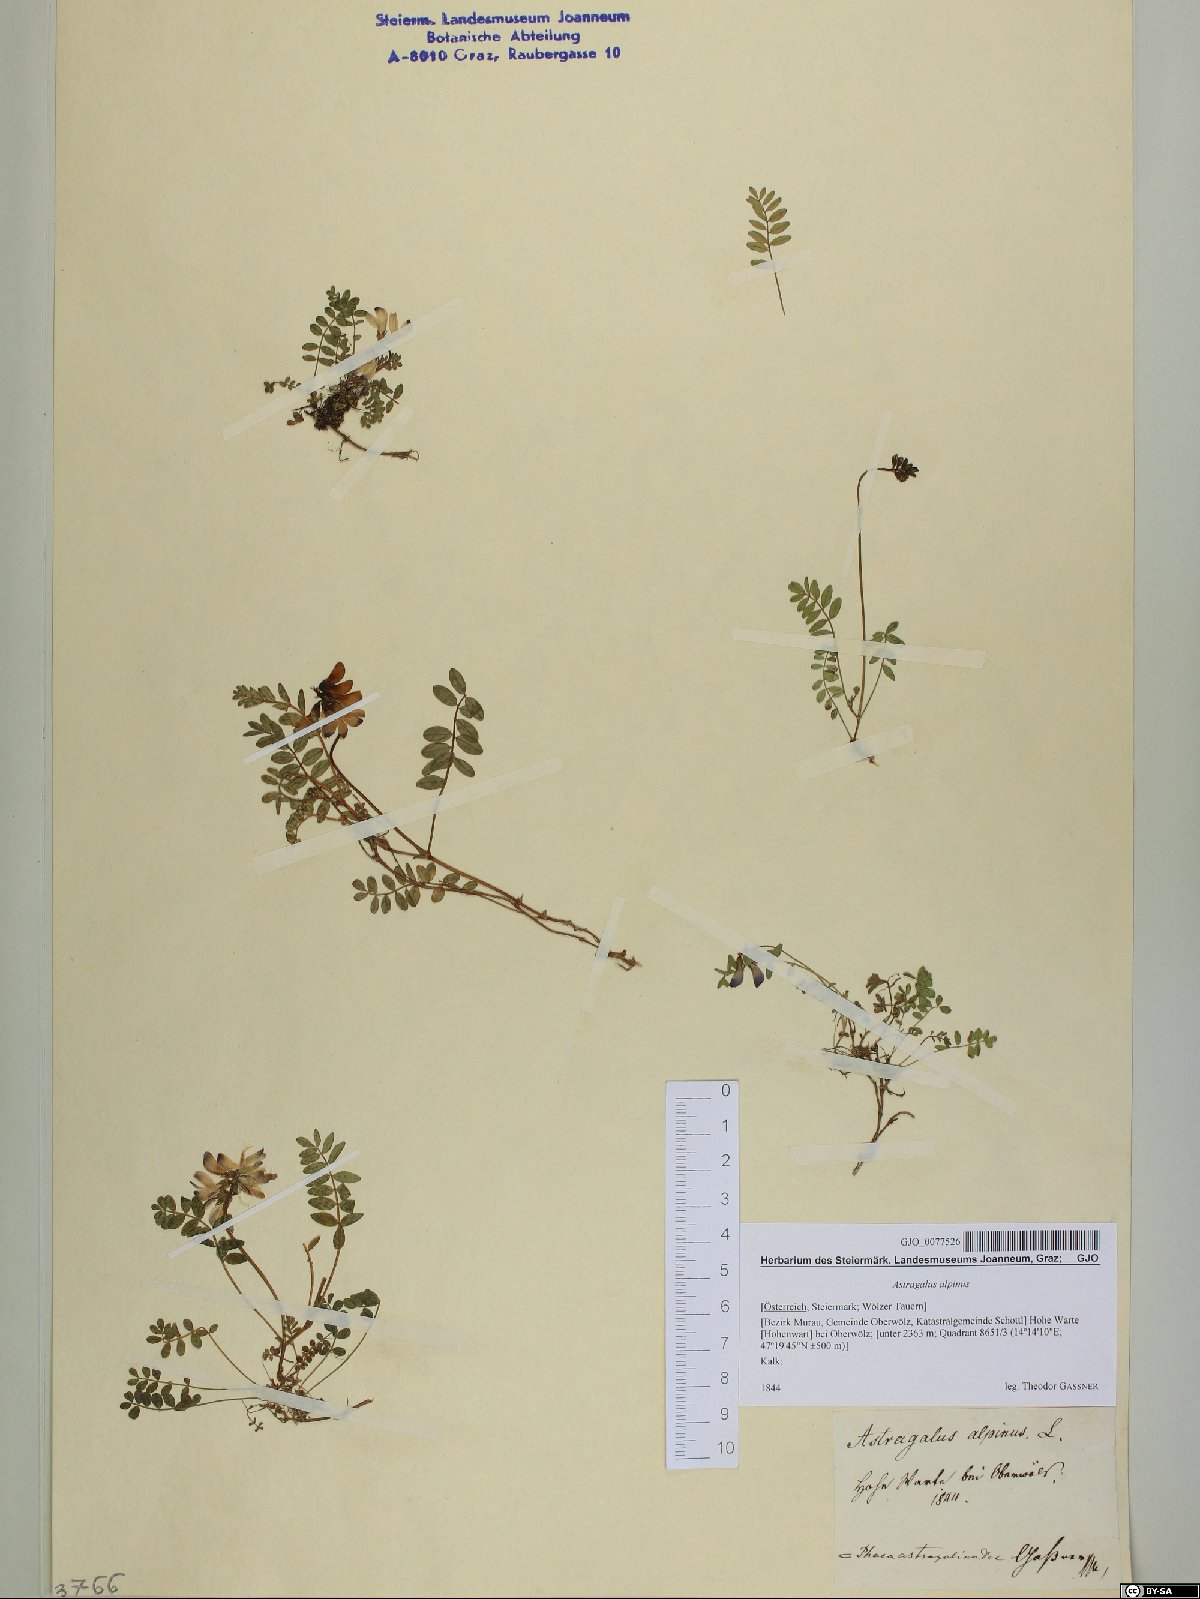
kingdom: Plantae
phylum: Tracheophyta
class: Magnoliopsida
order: Fabales
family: Fabaceae
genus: Astragalus
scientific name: Astragalus alpinus
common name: Alpine milk-vetch
